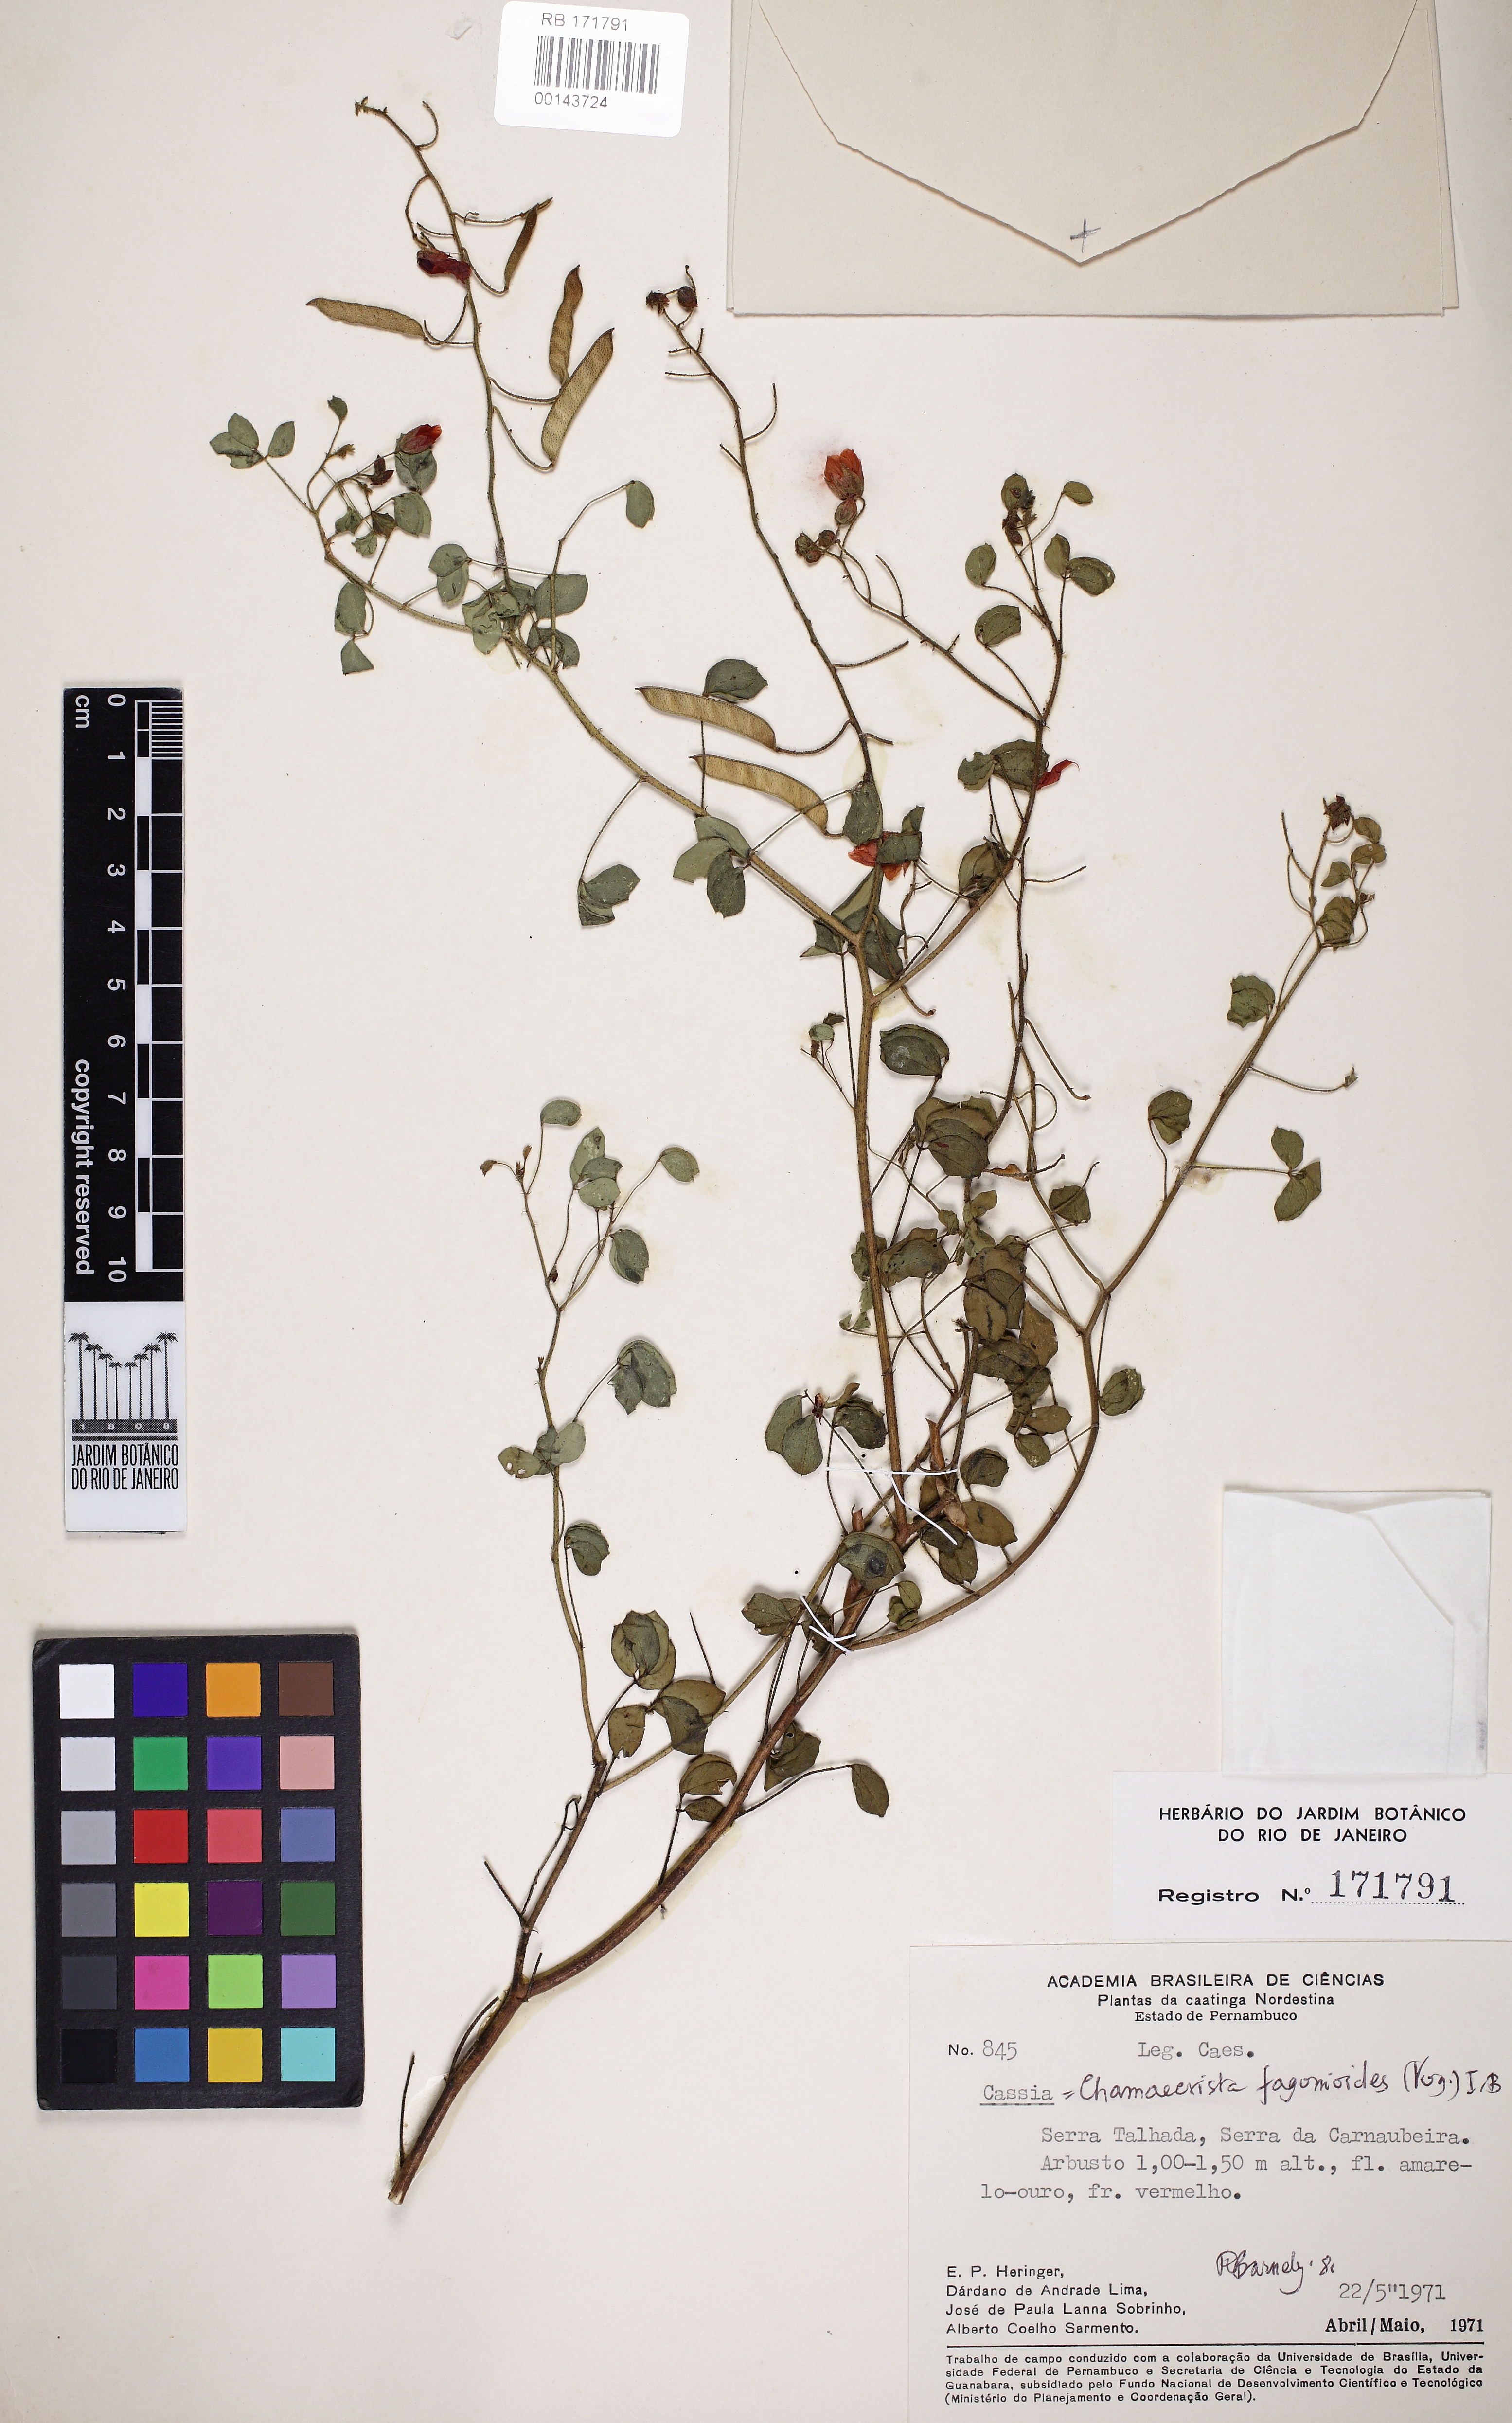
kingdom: Plantae
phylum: Tracheophyta
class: Magnoliopsida
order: Fabales
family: Fabaceae
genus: Chamaecrista
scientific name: Chamaecrista fasciculata
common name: Golden cassia
